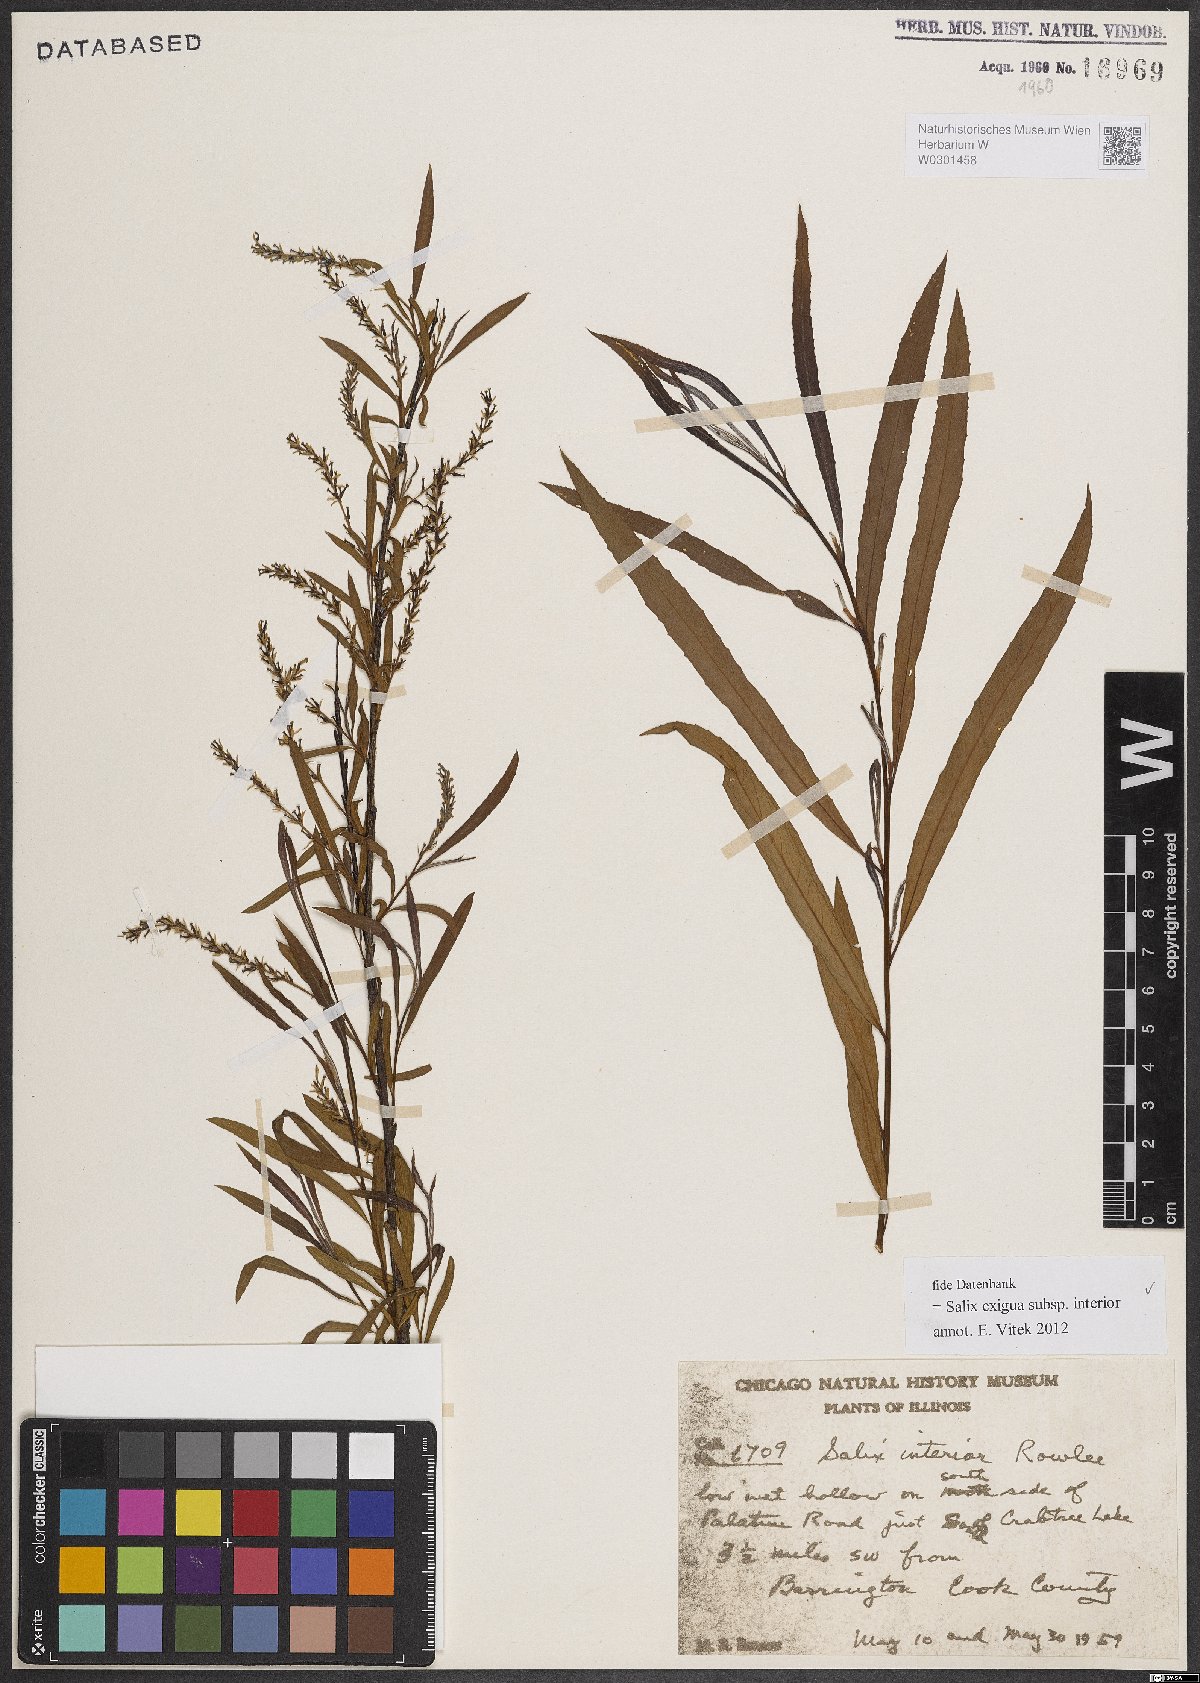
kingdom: Plantae
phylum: Tracheophyta
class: Magnoliopsida
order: Malpighiales
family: Salicaceae
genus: Salix
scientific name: Salix interior
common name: Sandbar willow
